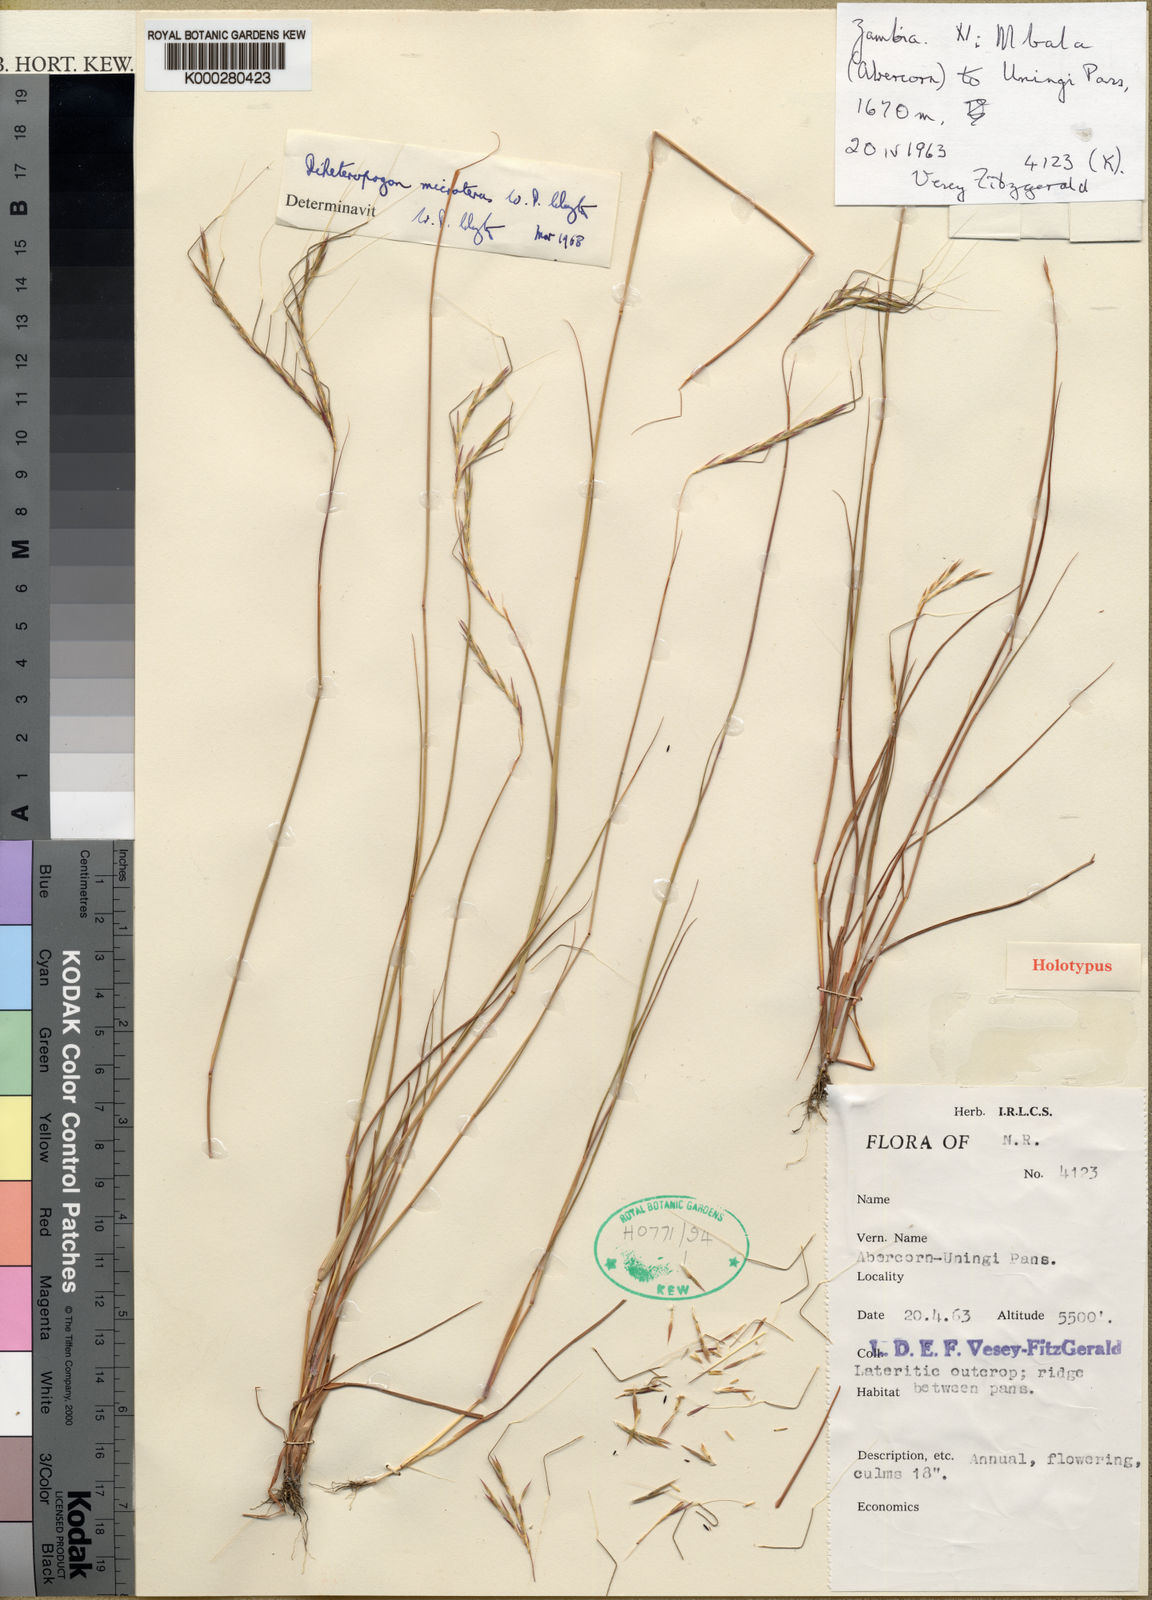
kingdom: Plantae
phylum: Tracheophyta
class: Liliopsida
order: Poales
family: Poaceae
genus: Diheteropogon
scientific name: Diheteropogon microterus
